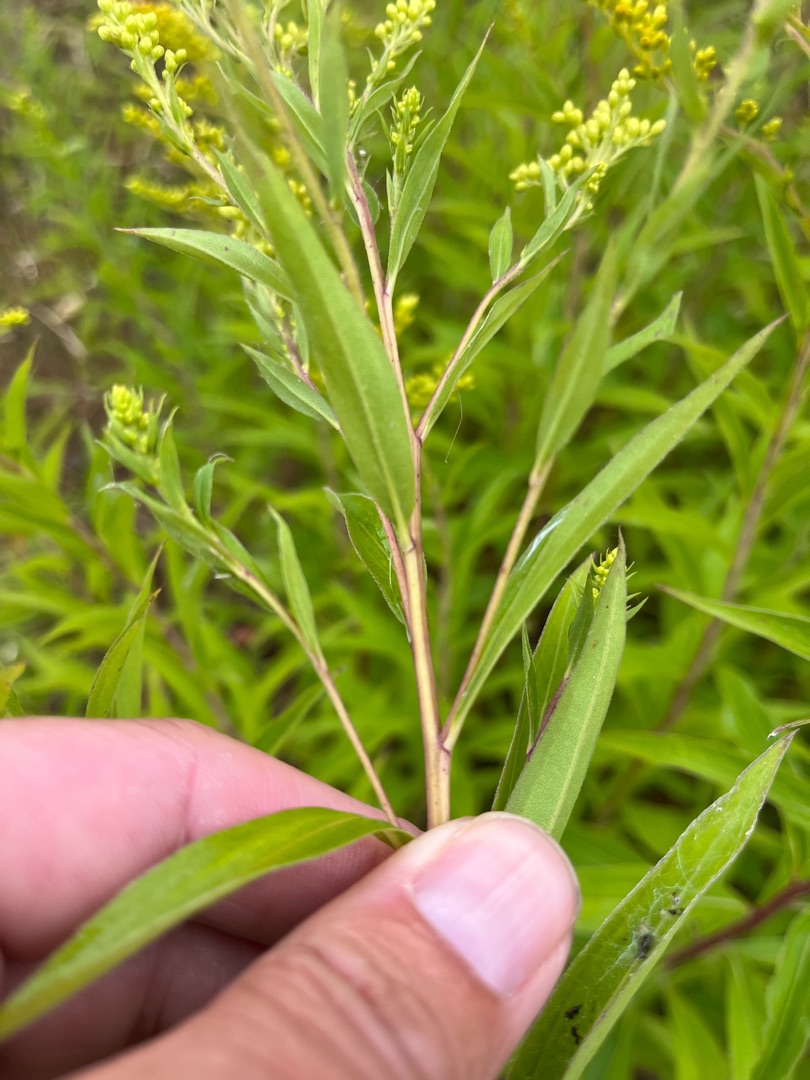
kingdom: Plantae
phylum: Tracheophyta
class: Magnoliopsida
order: Asterales
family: Asteraceae
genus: Solidago
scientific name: Solidago gigantea
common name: Sildig gyldenris
